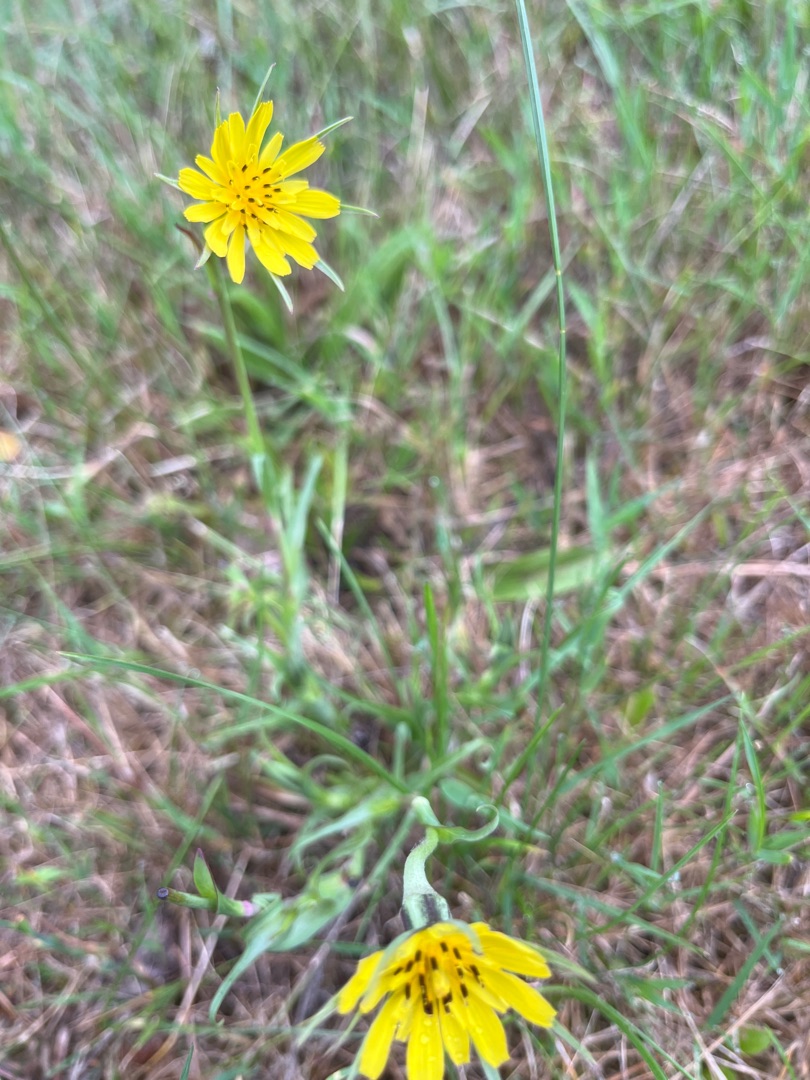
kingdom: Plantae
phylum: Tracheophyta
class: Magnoliopsida
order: Asterales
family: Asteraceae
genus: Tragopogon
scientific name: Tragopogon minor
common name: Småkronet gedeskæg
